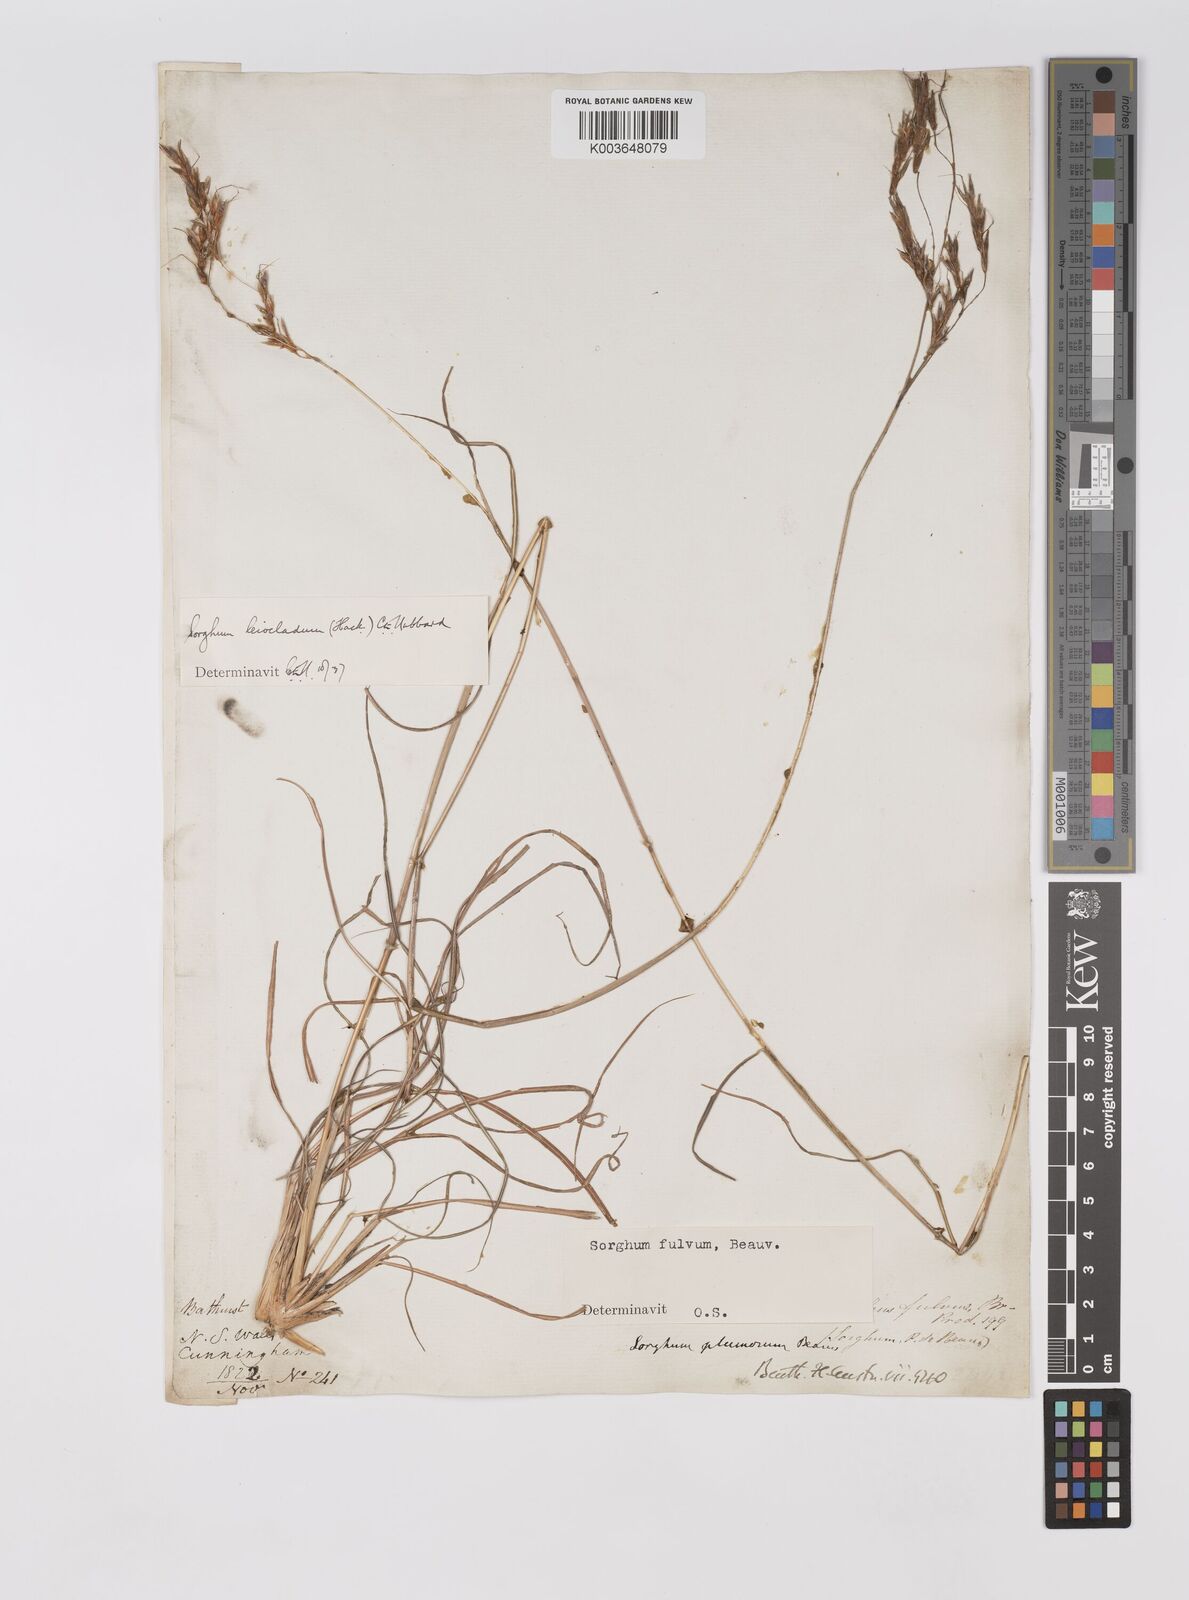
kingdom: Plantae
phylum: Tracheophyta
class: Liliopsida
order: Poales
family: Poaceae
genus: Sarga
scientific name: Sarga leioclada
